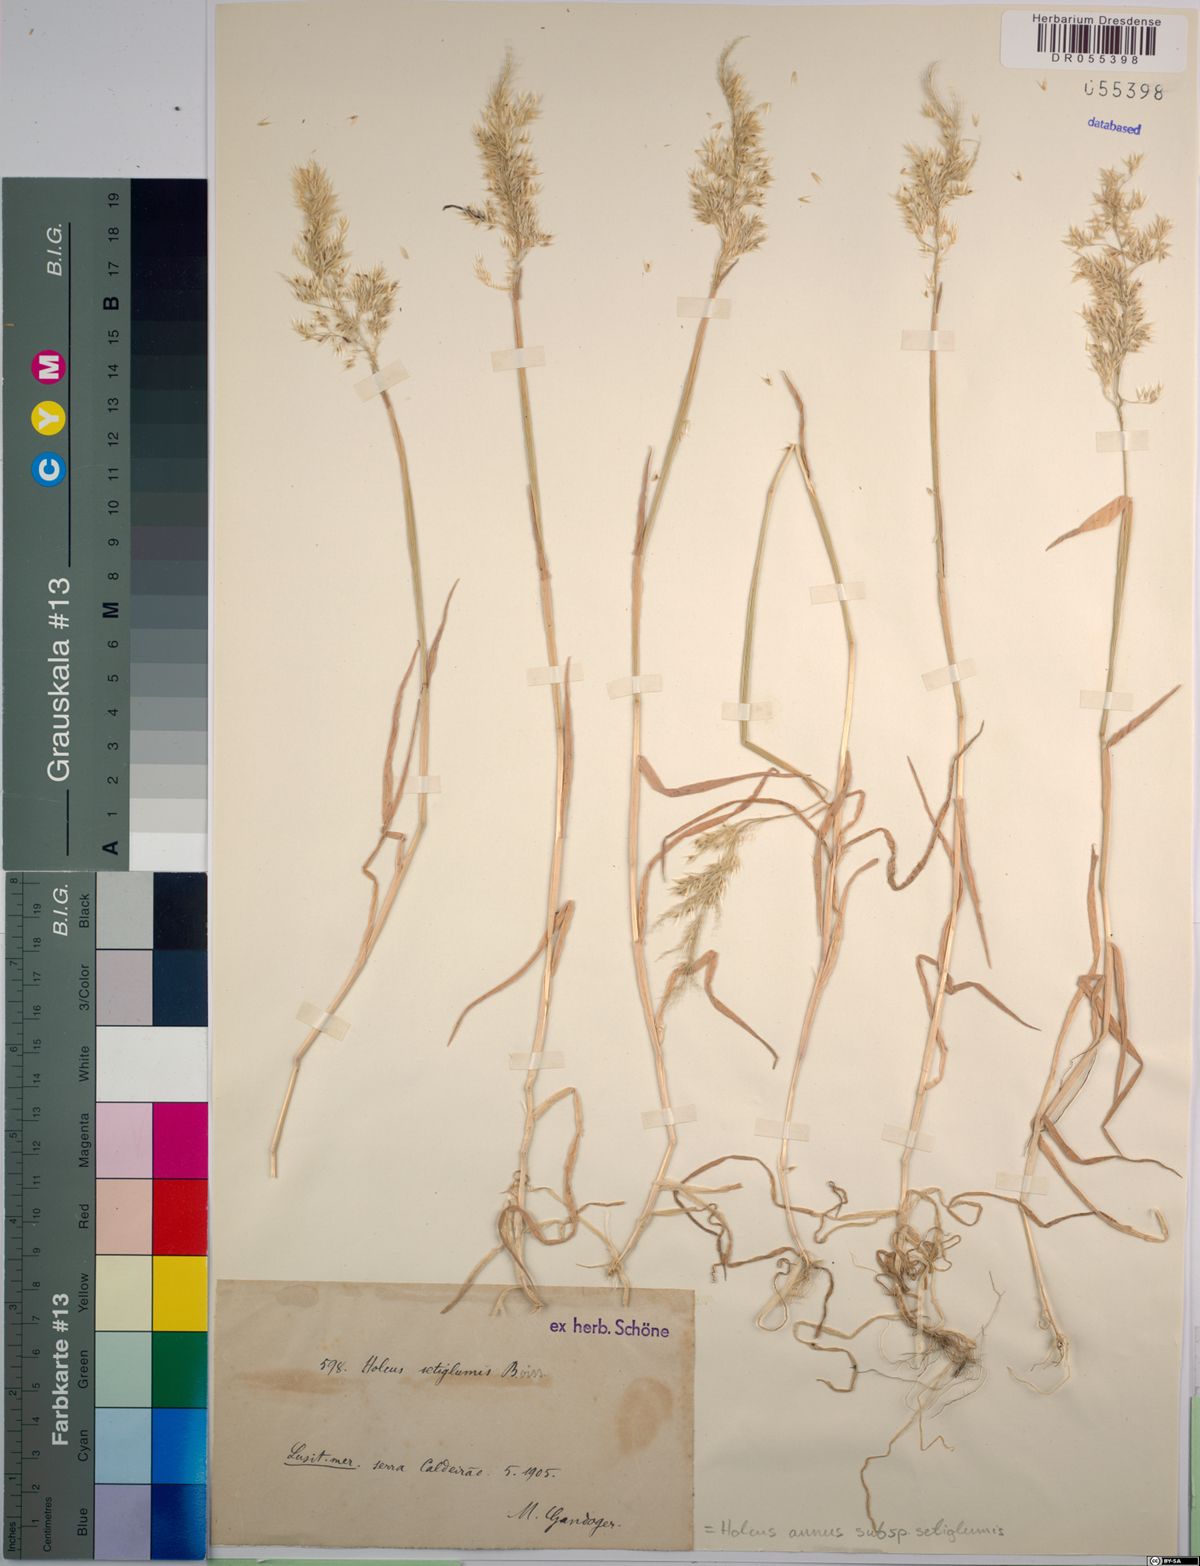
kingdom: Plantae
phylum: Tracheophyta
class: Liliopsida
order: Poales
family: Poaceae
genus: Holcus
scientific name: Holcus annuus
